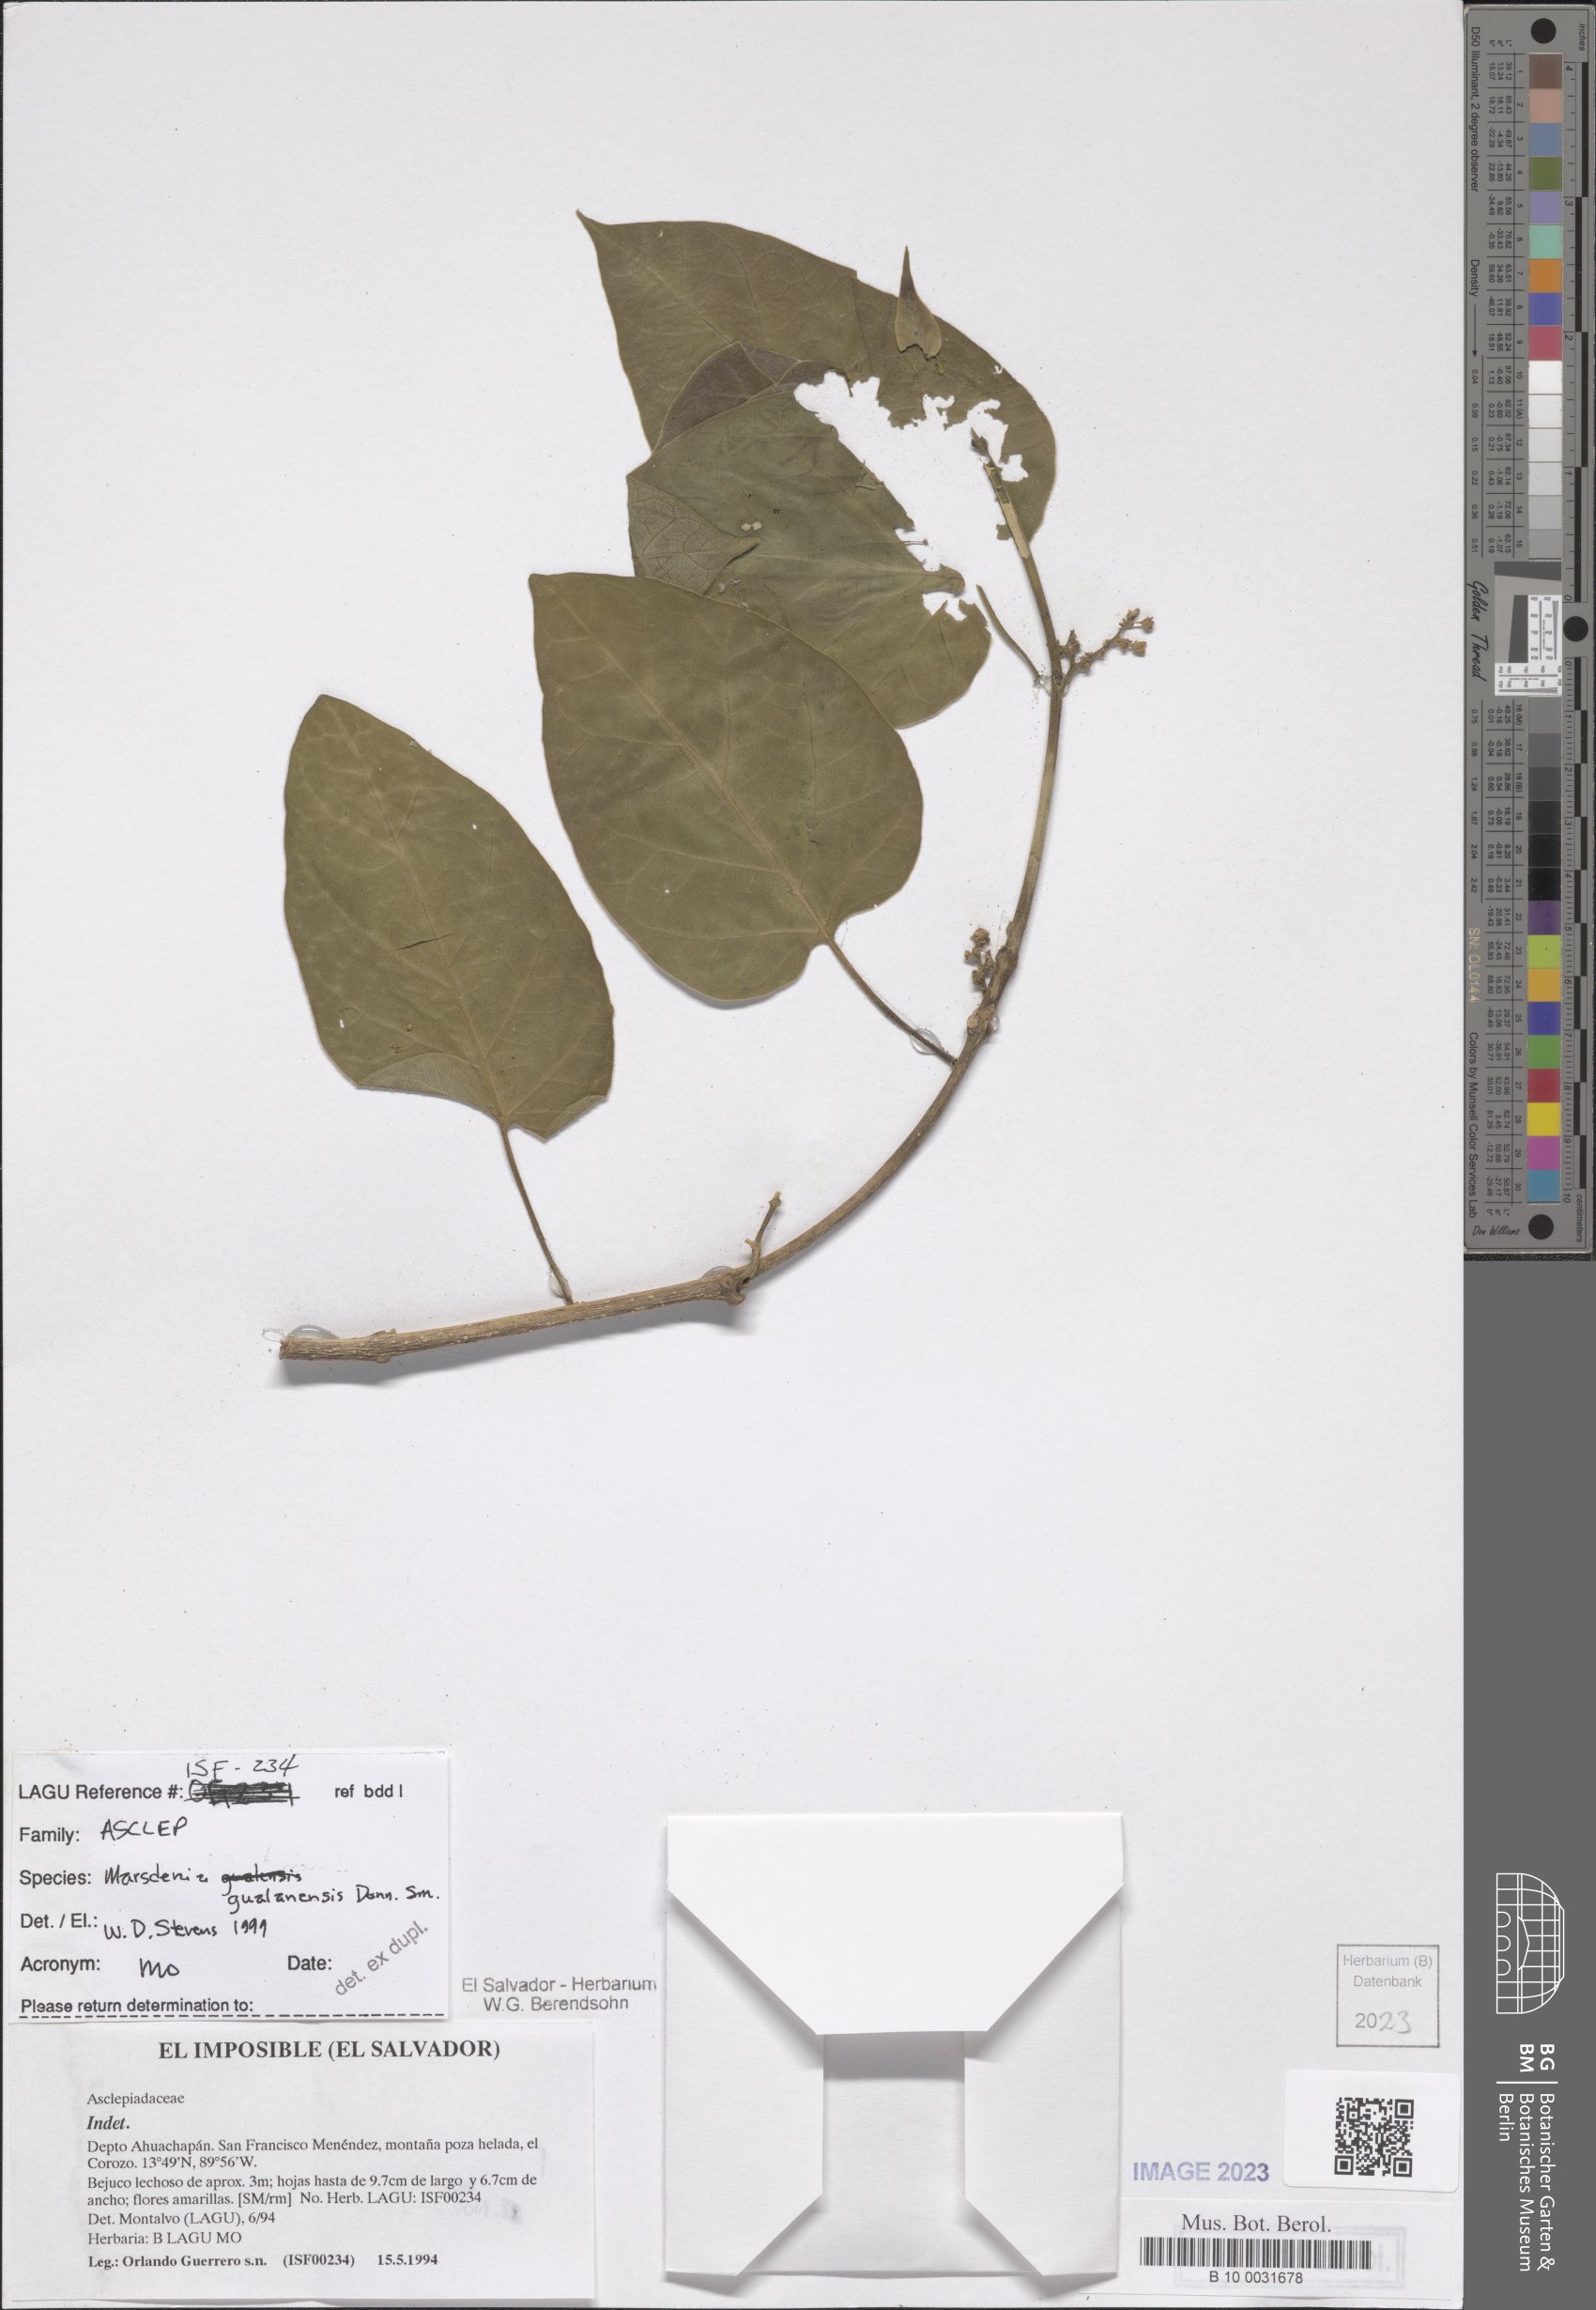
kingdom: Plantae
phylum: Tracheophyta
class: Magnoliopsida
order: Gentianales
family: Apocynaceae
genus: Ruehssia
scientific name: Ruehssia gualanensis
